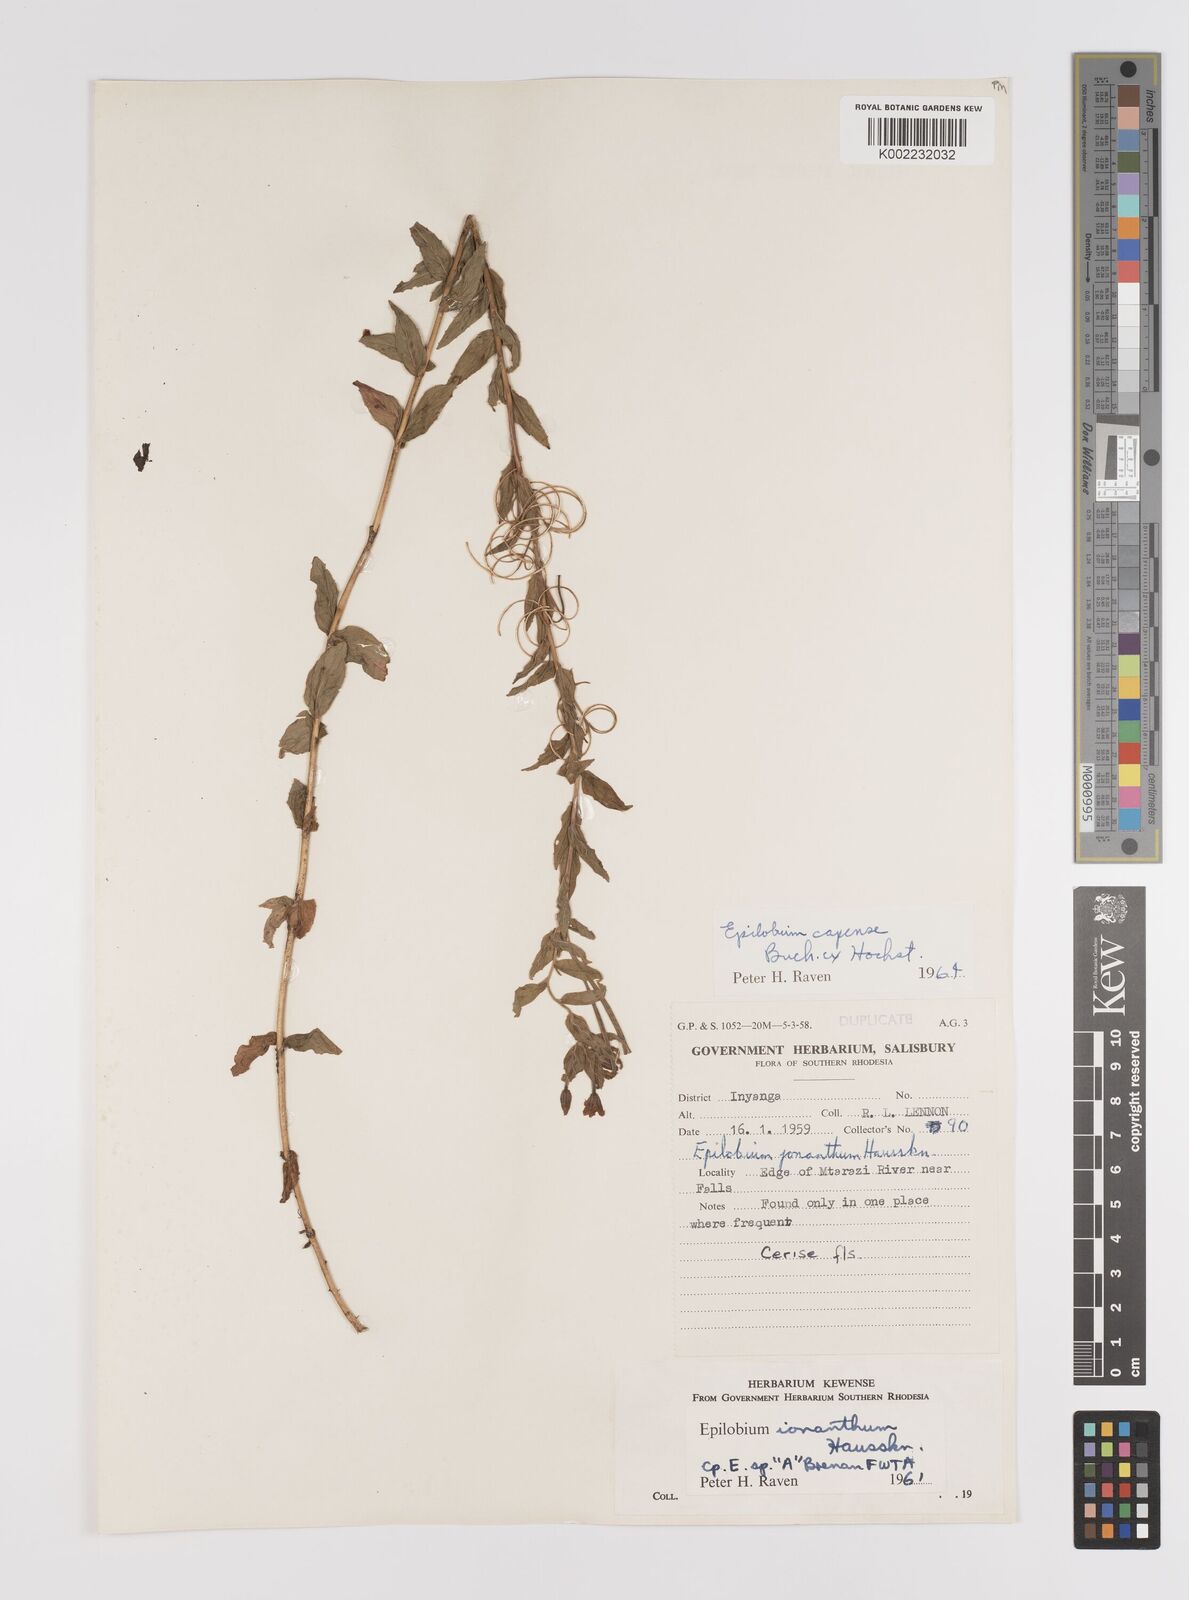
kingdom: Plantae
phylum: Tracheophyta
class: Magnoliopsida
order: Myrtales
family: Onagraceae
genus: Epilobium
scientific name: Epilobium capense
